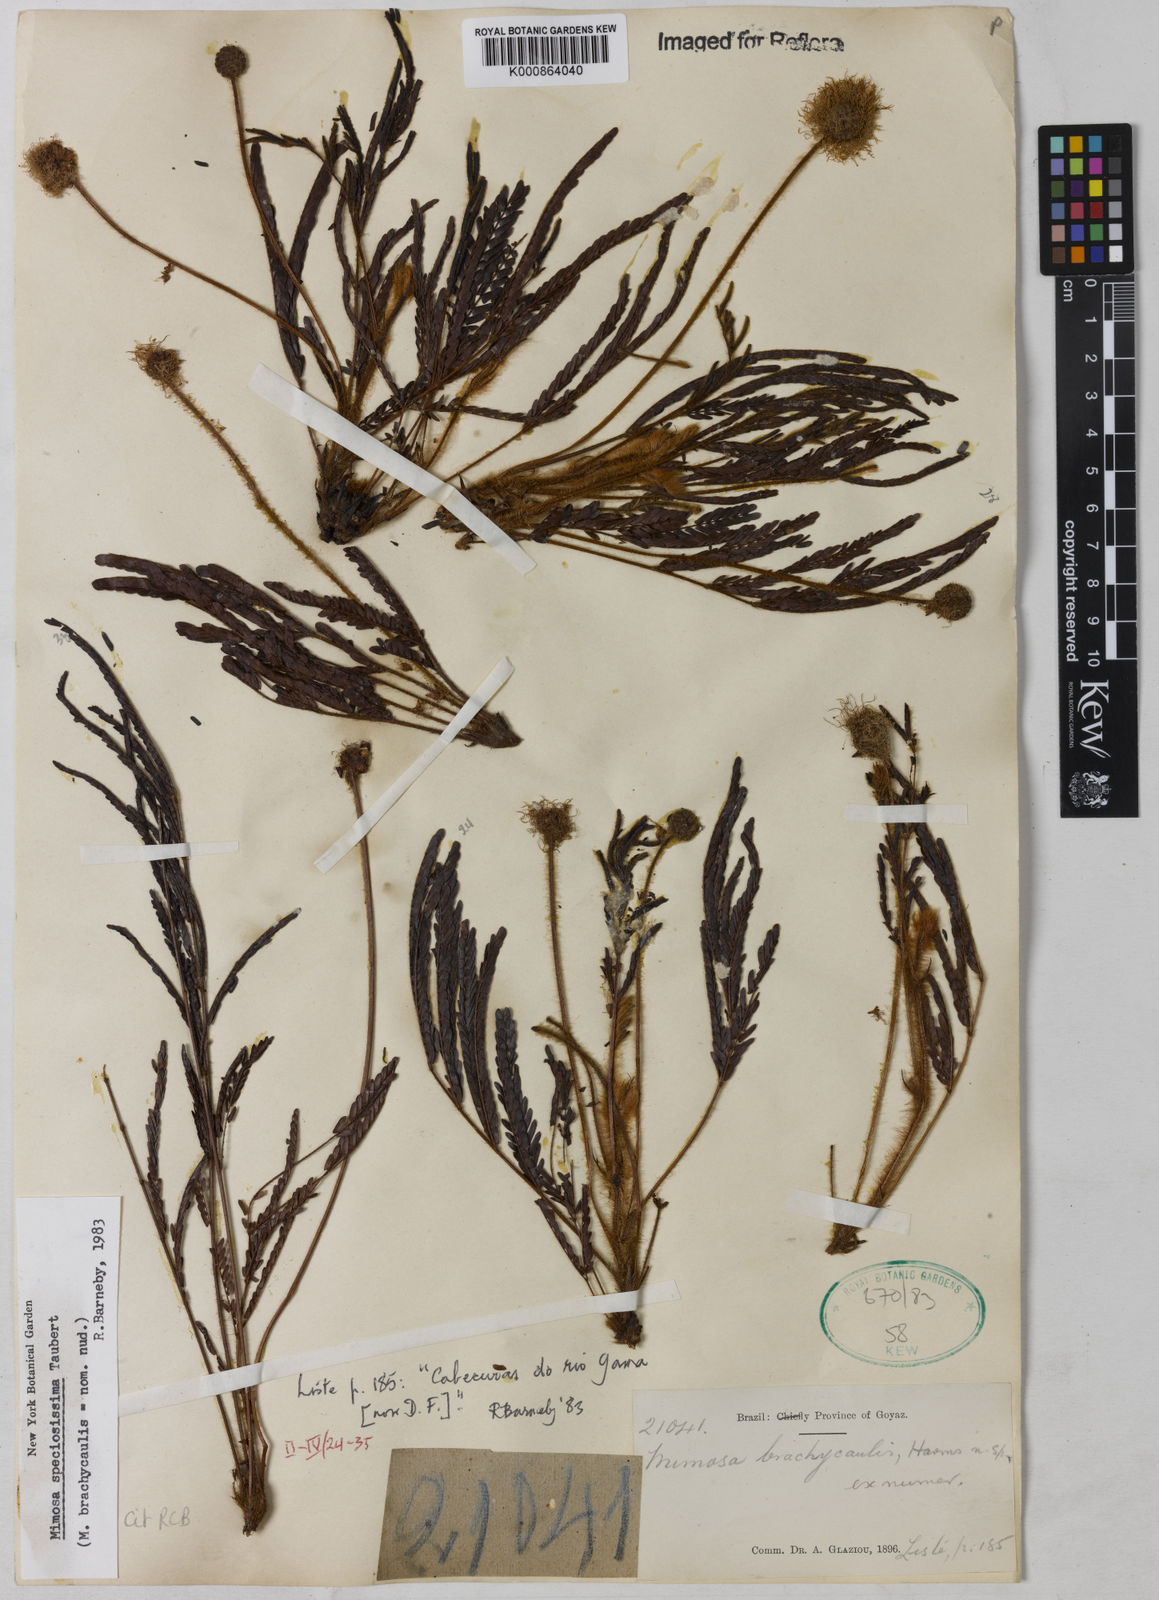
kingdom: Plantae
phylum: Tracheophyta
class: Magnoliopsida
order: Fabales
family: Fabaceae
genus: Mimosa
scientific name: Mimosa speciosissima
